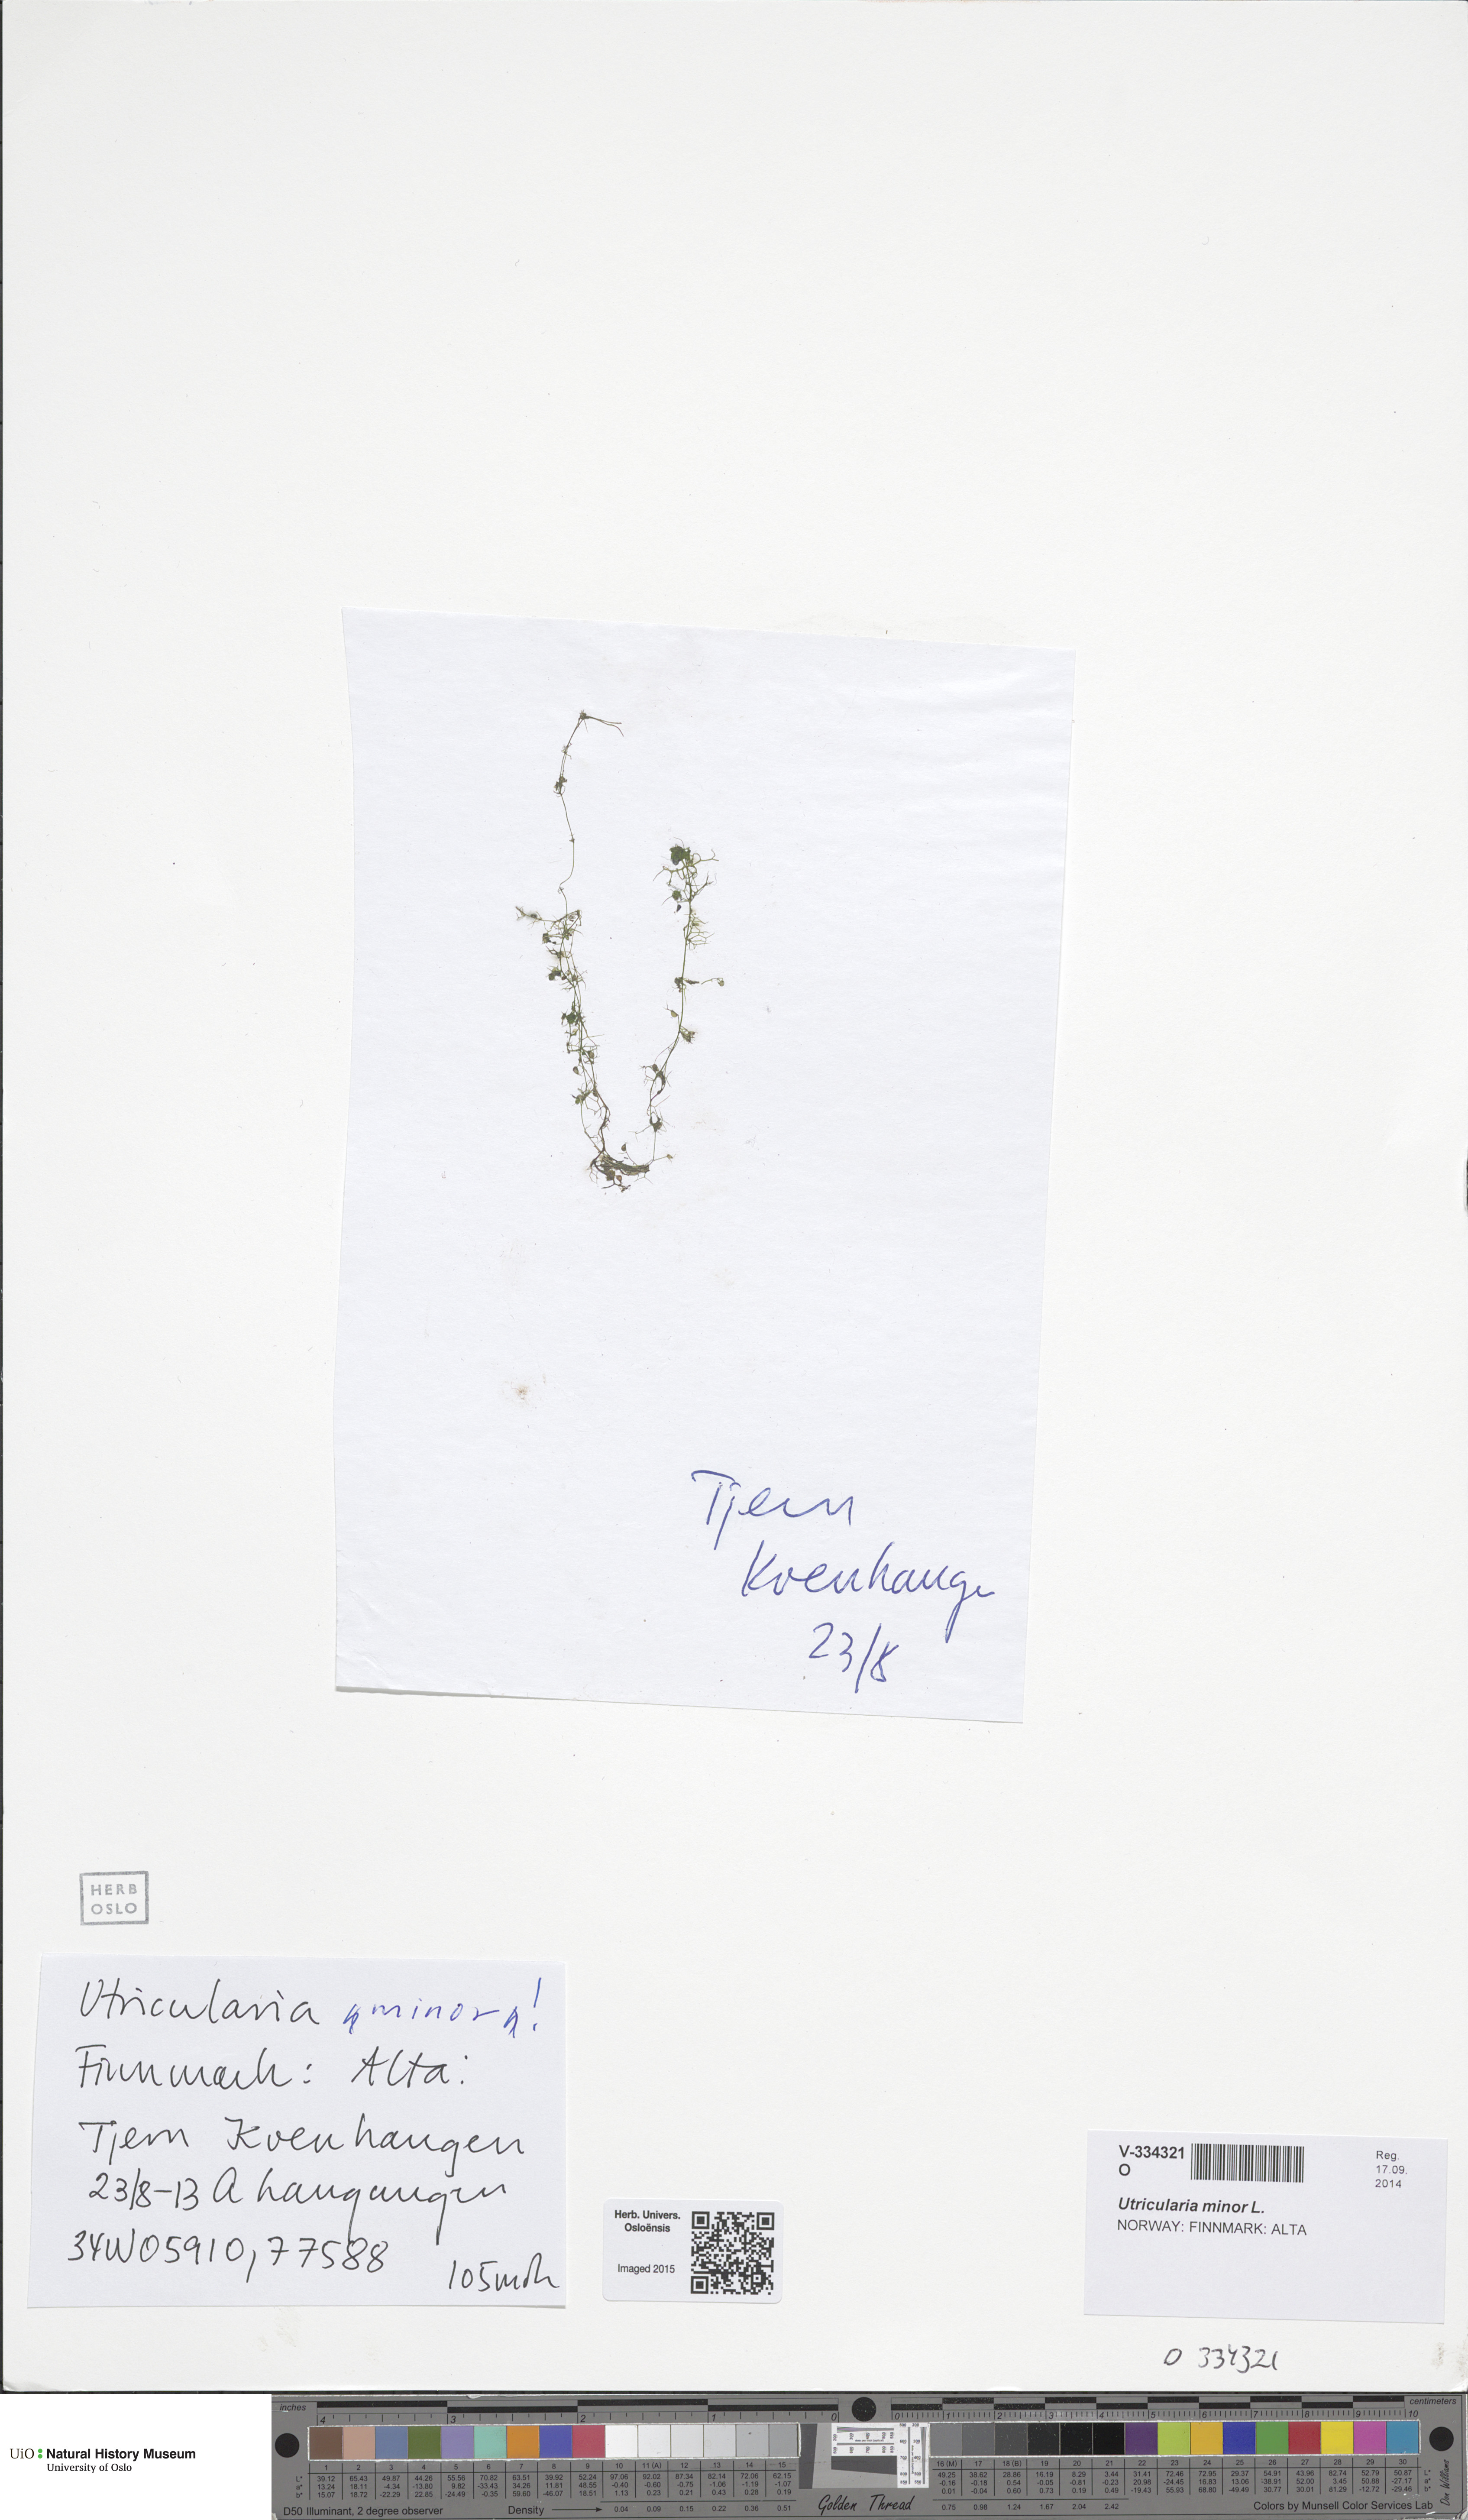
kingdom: Plantae
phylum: Tracheophyta
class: Magnoliopsida
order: Lamiales
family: Lentibulariaceae
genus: Utricularia
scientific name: Utricularia minor
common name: Lesser bladderwort
